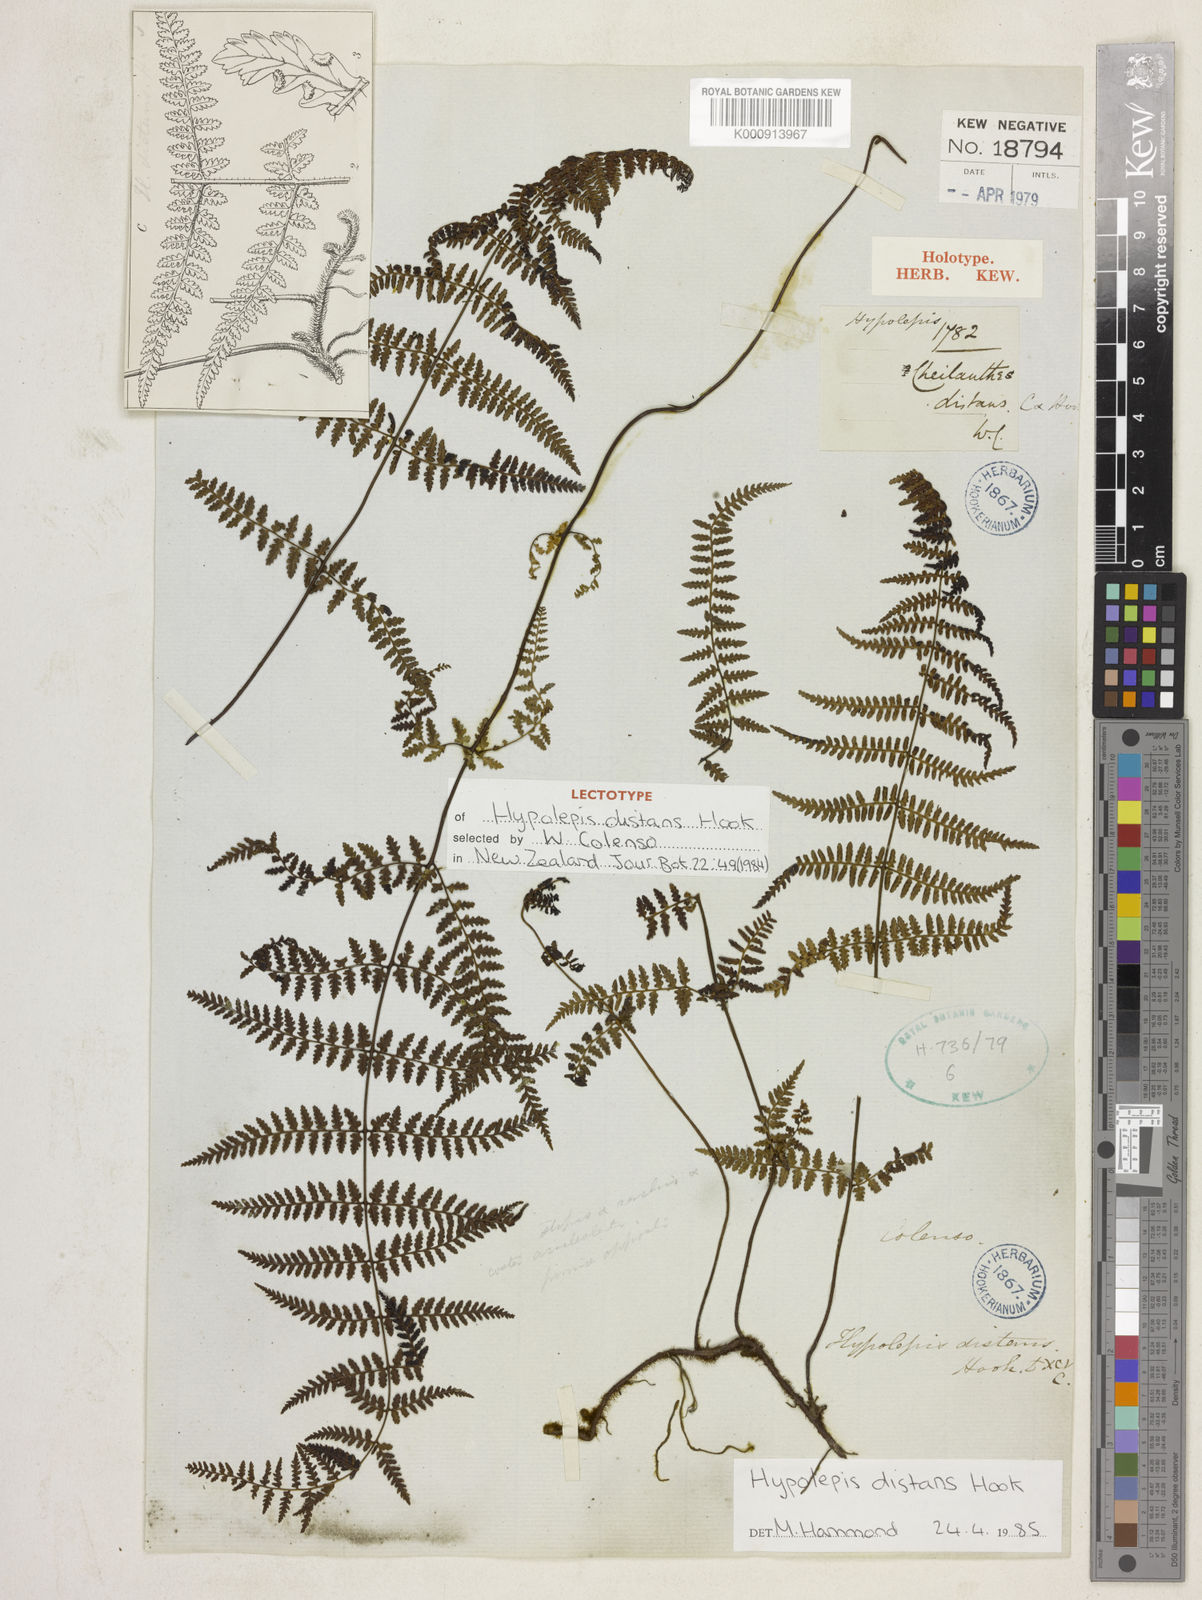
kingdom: Plantae
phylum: Tracheophyta
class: Polypodiopsida
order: Polypodiales
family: Dennstaedtiaceae
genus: Hiya
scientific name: Hiya distans
